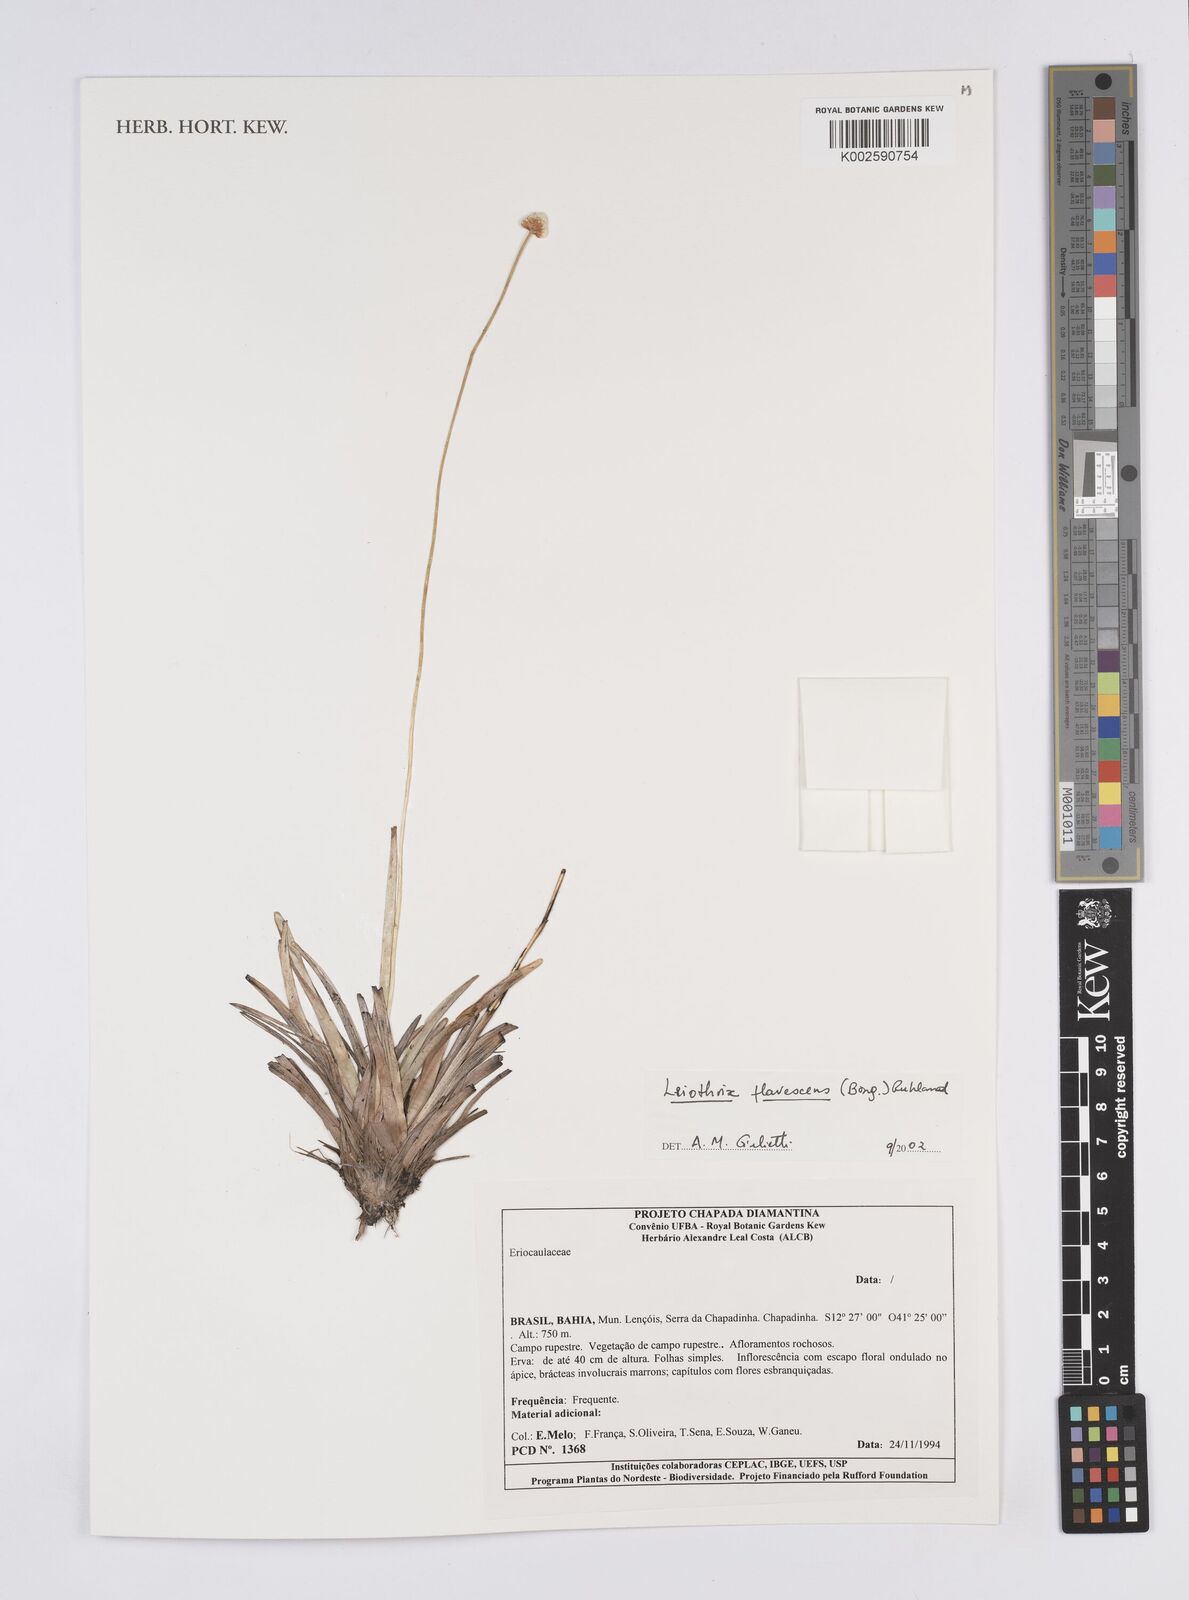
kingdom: Plantae
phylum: Tracheophyta
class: Liliopsida
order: Poales
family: Eriocaulaceae
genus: Leiothrix
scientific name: Leiothrix flavescens
